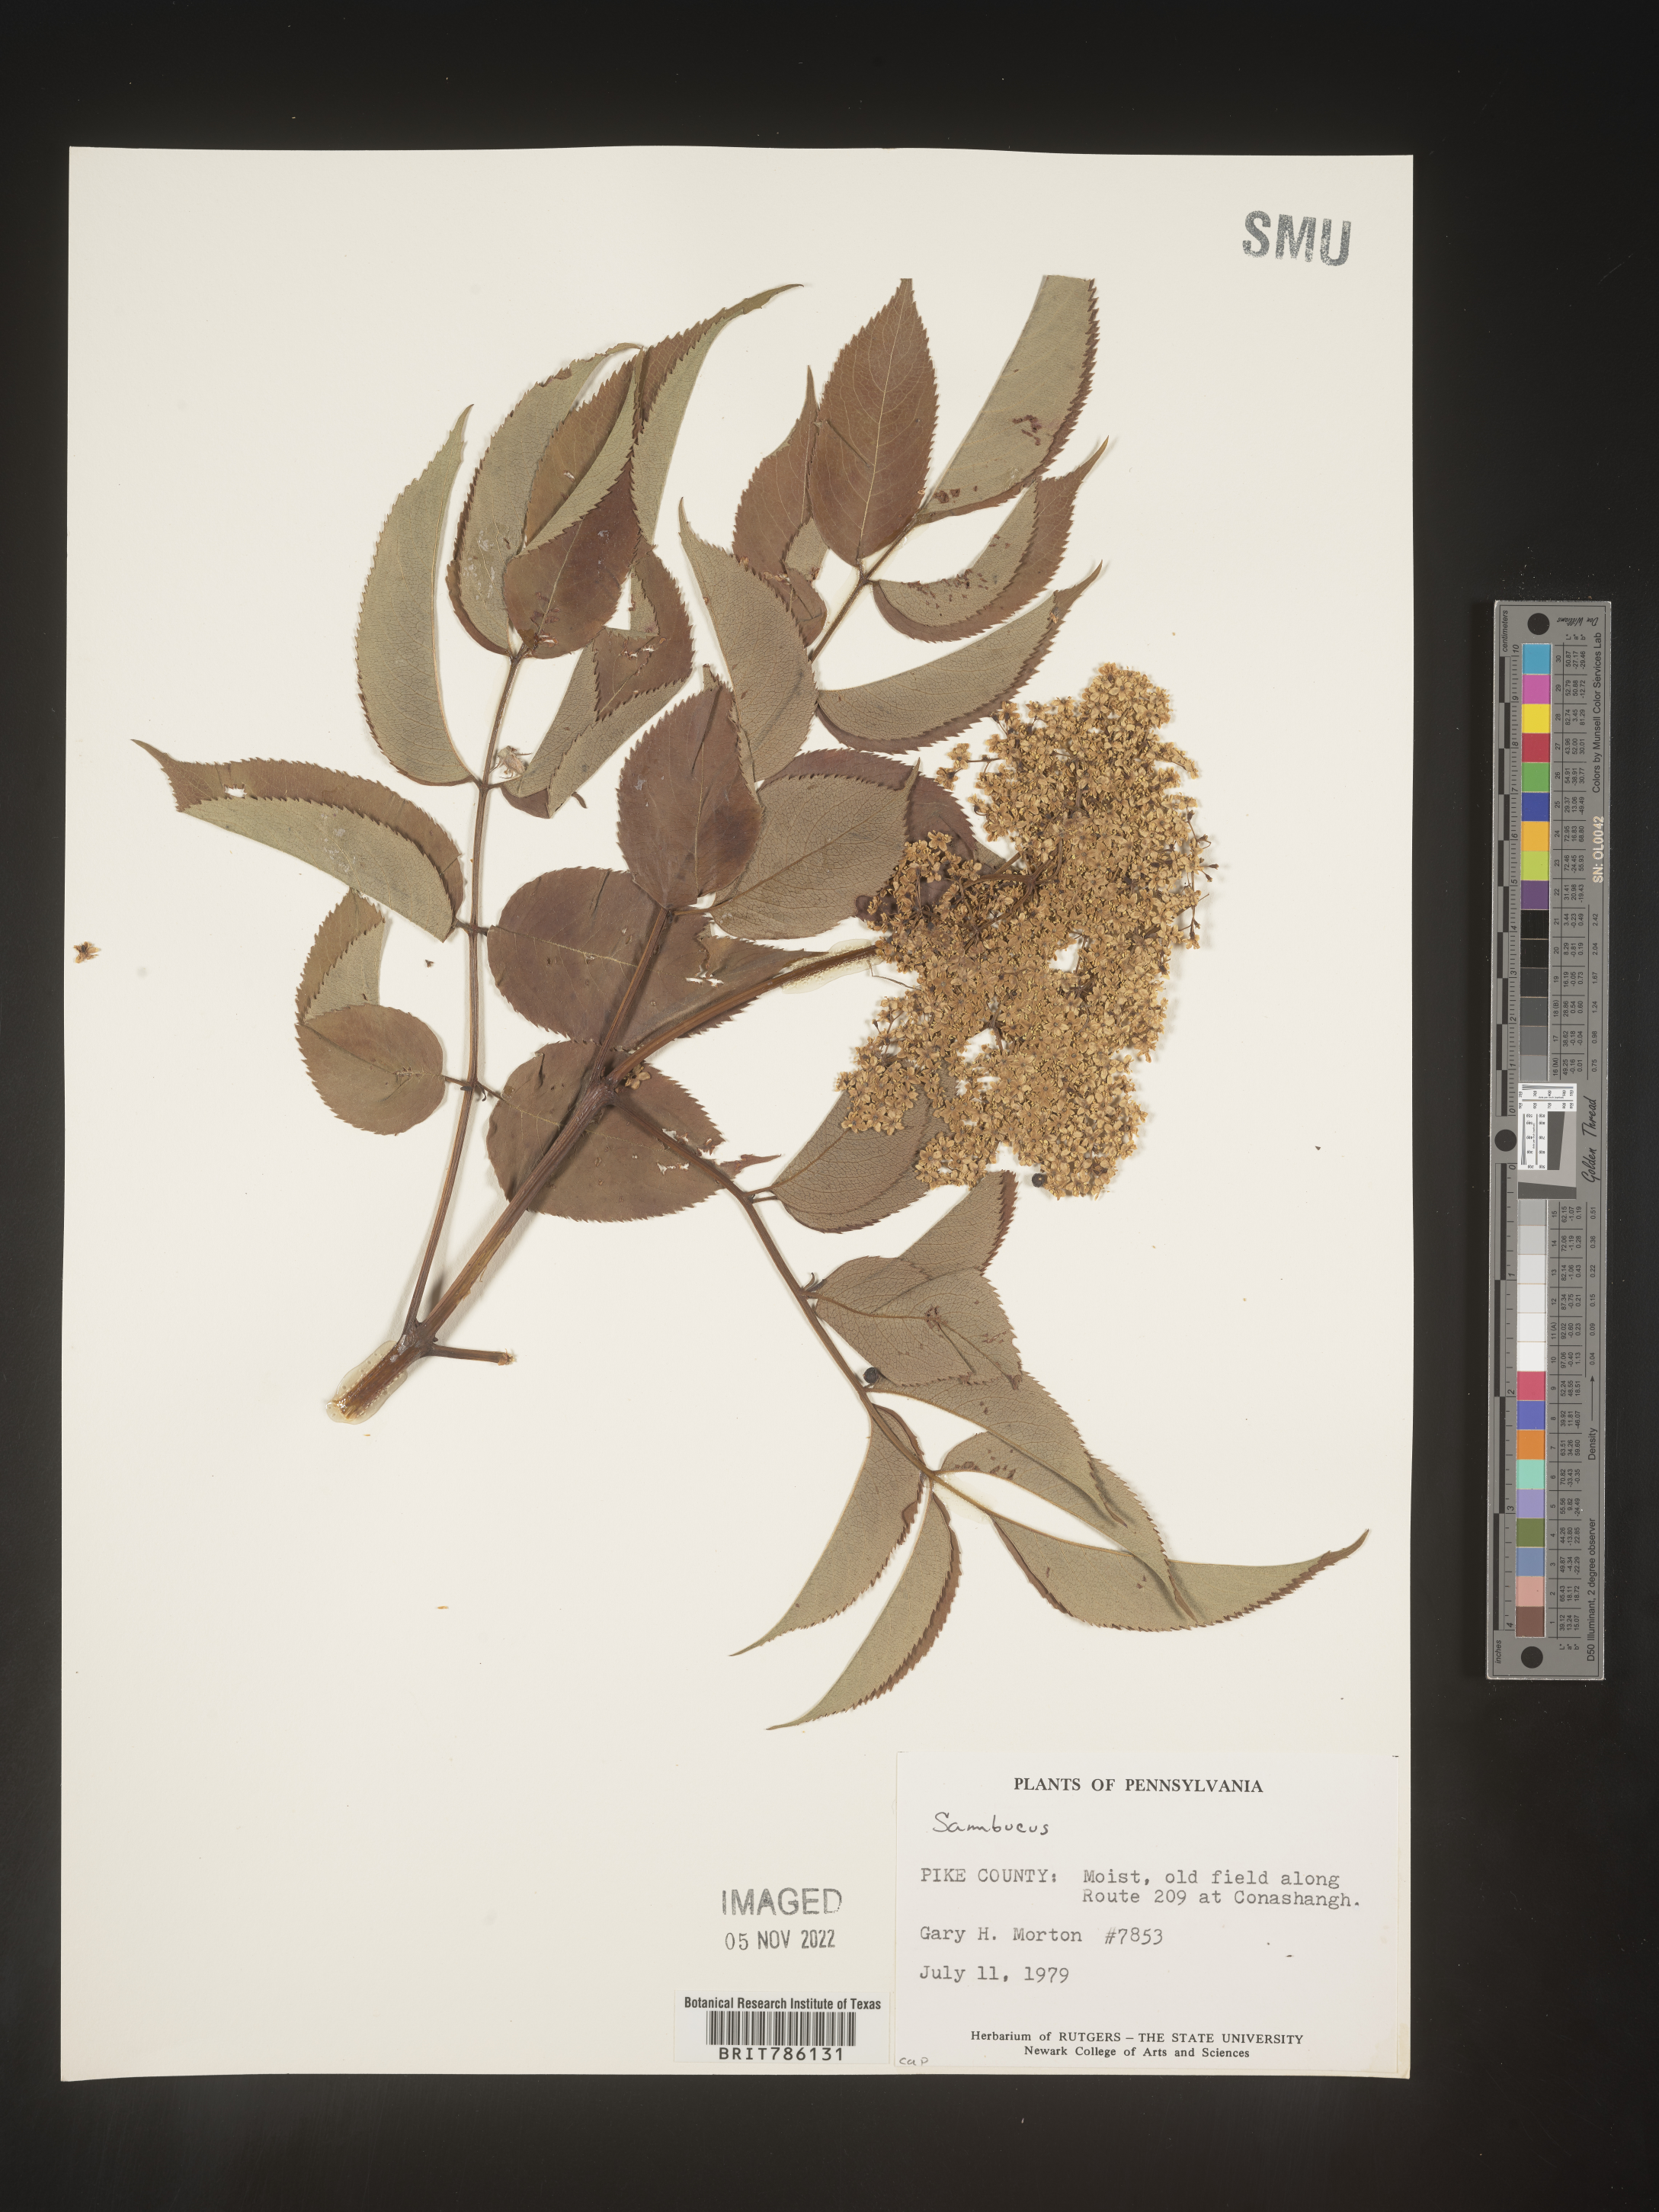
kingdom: Plantae
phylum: Tracheophyta
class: Magnoliopsida
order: Dipsacales
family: Viburnaceae
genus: Sambucus
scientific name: Sambucus
